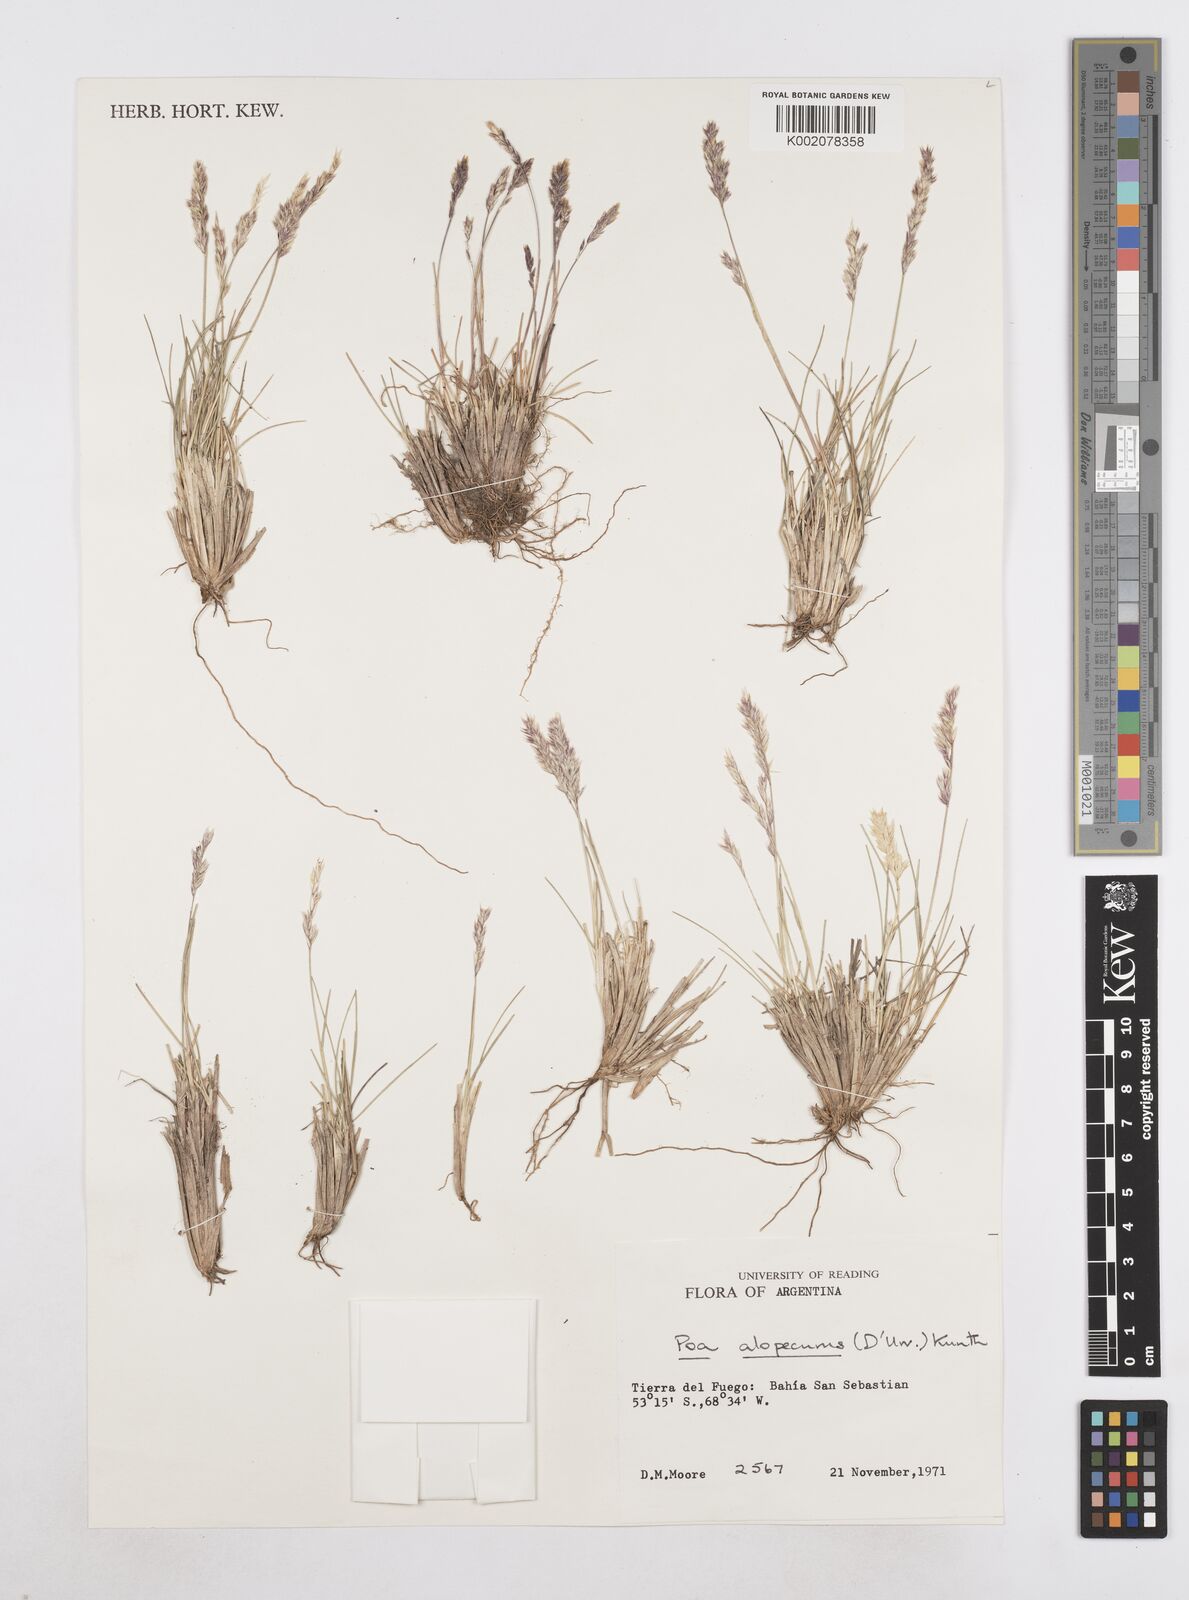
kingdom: Plantae
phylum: Tracheophyta
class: Liliopsida
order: Poales
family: Poaceae
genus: Poa
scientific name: Poa alopecurus
